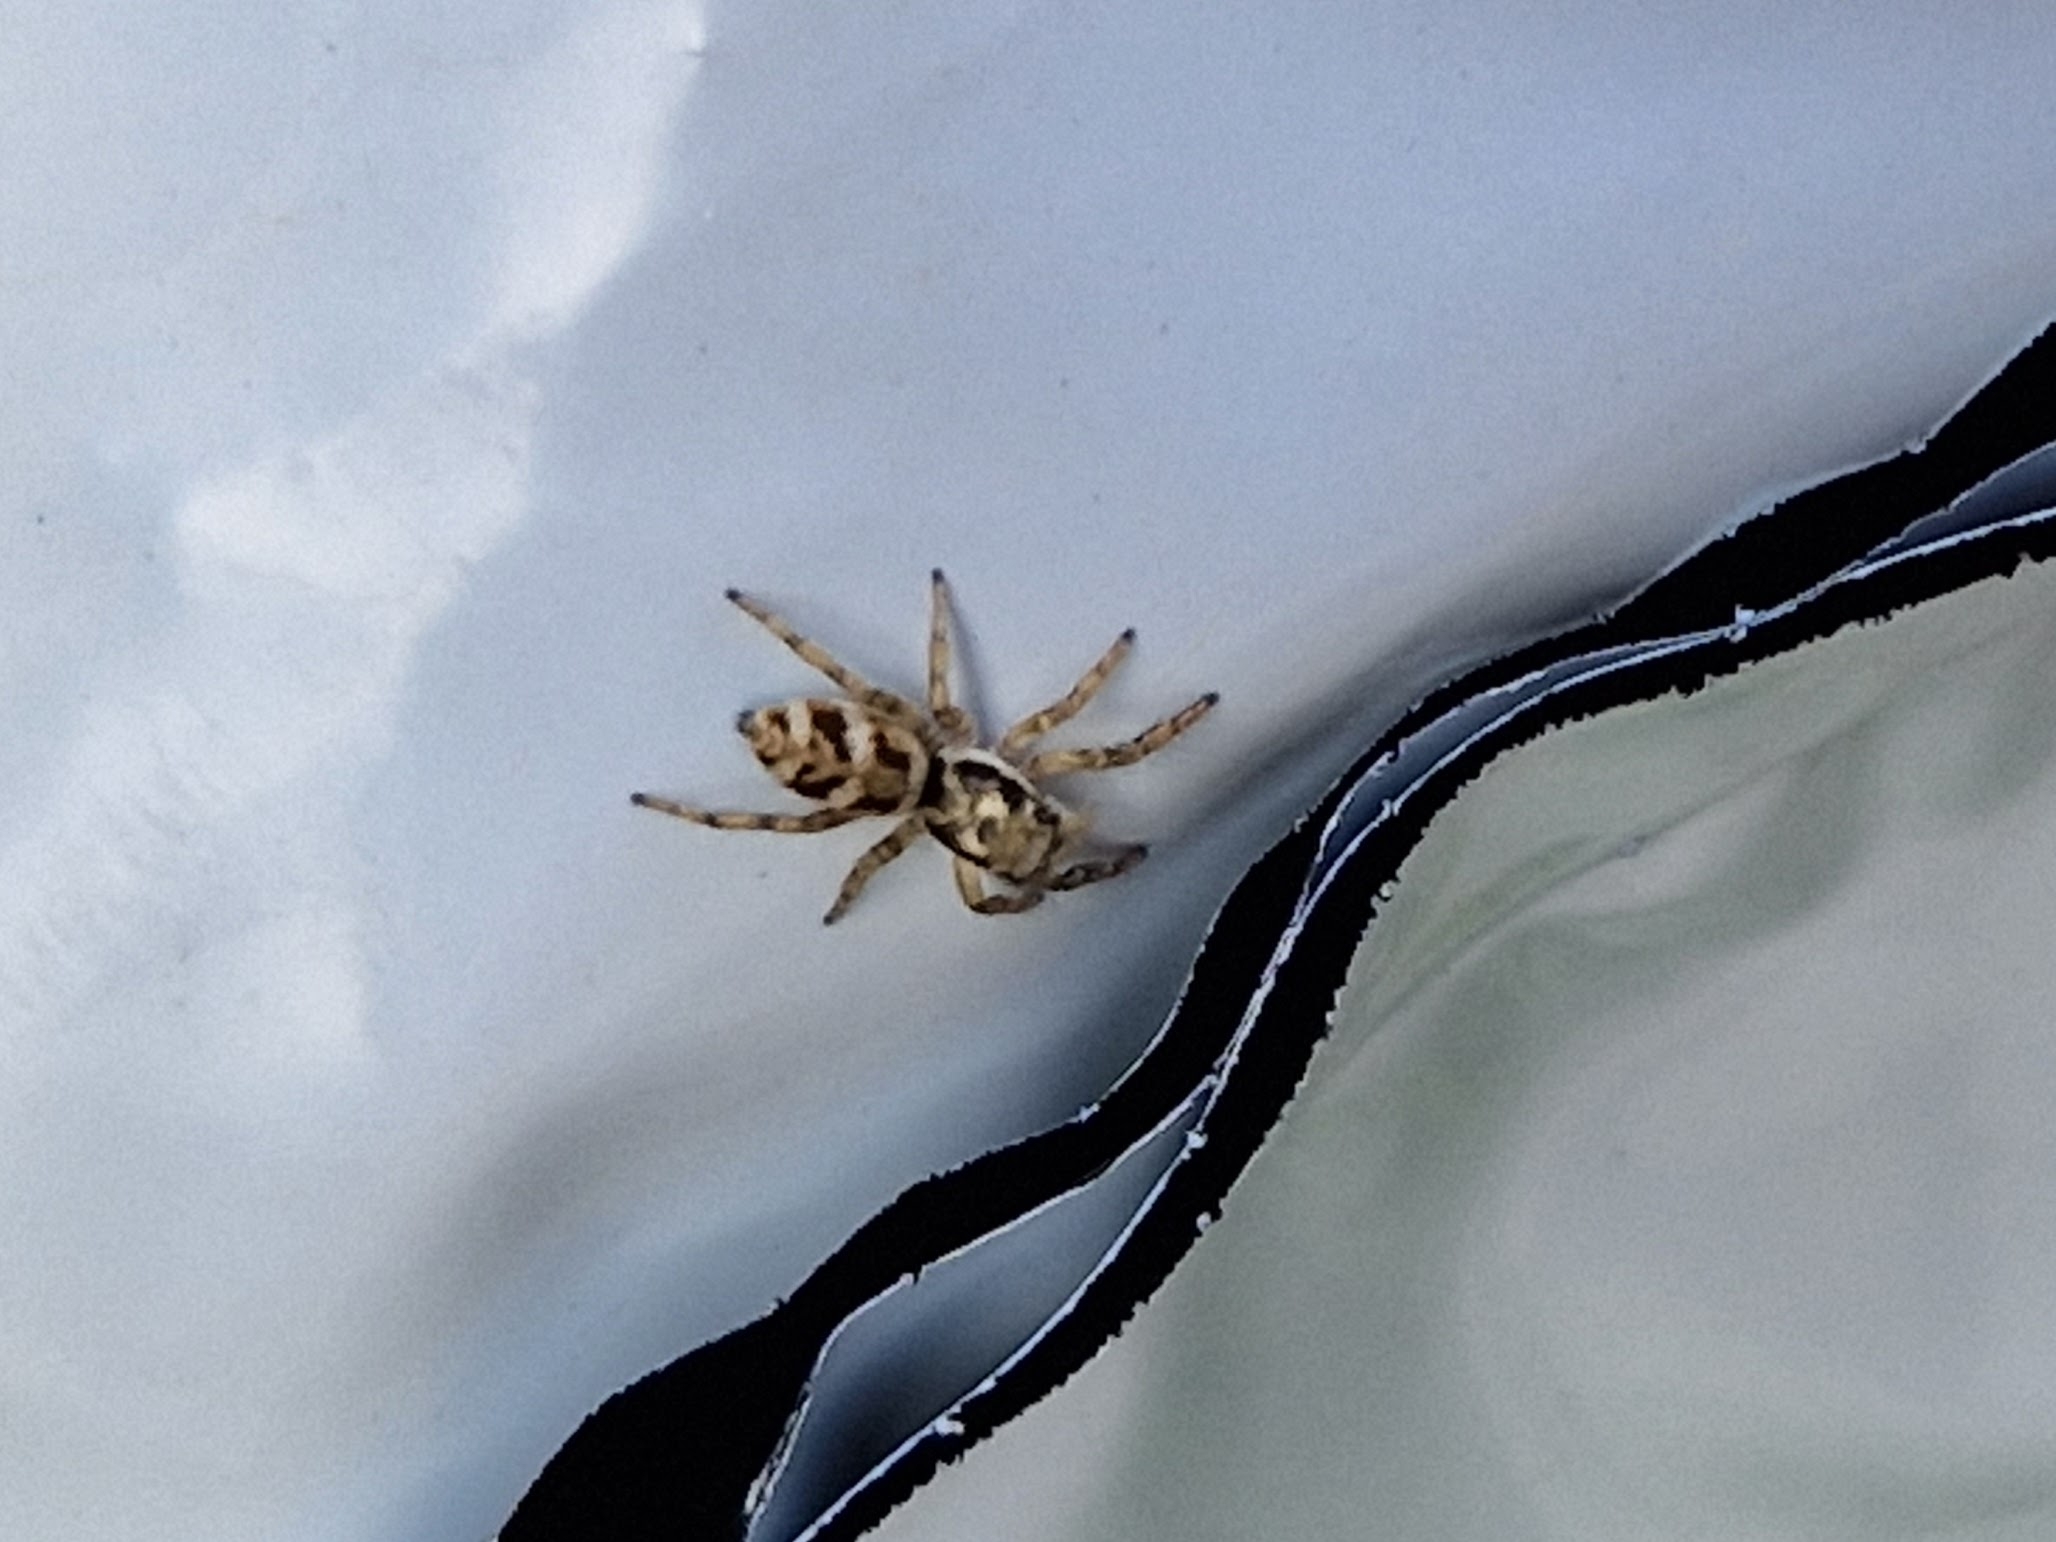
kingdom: Animalia
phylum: Arthropoda
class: Arachnida
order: Araneae
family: Salticidae
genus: Salticus
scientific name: Salticus
